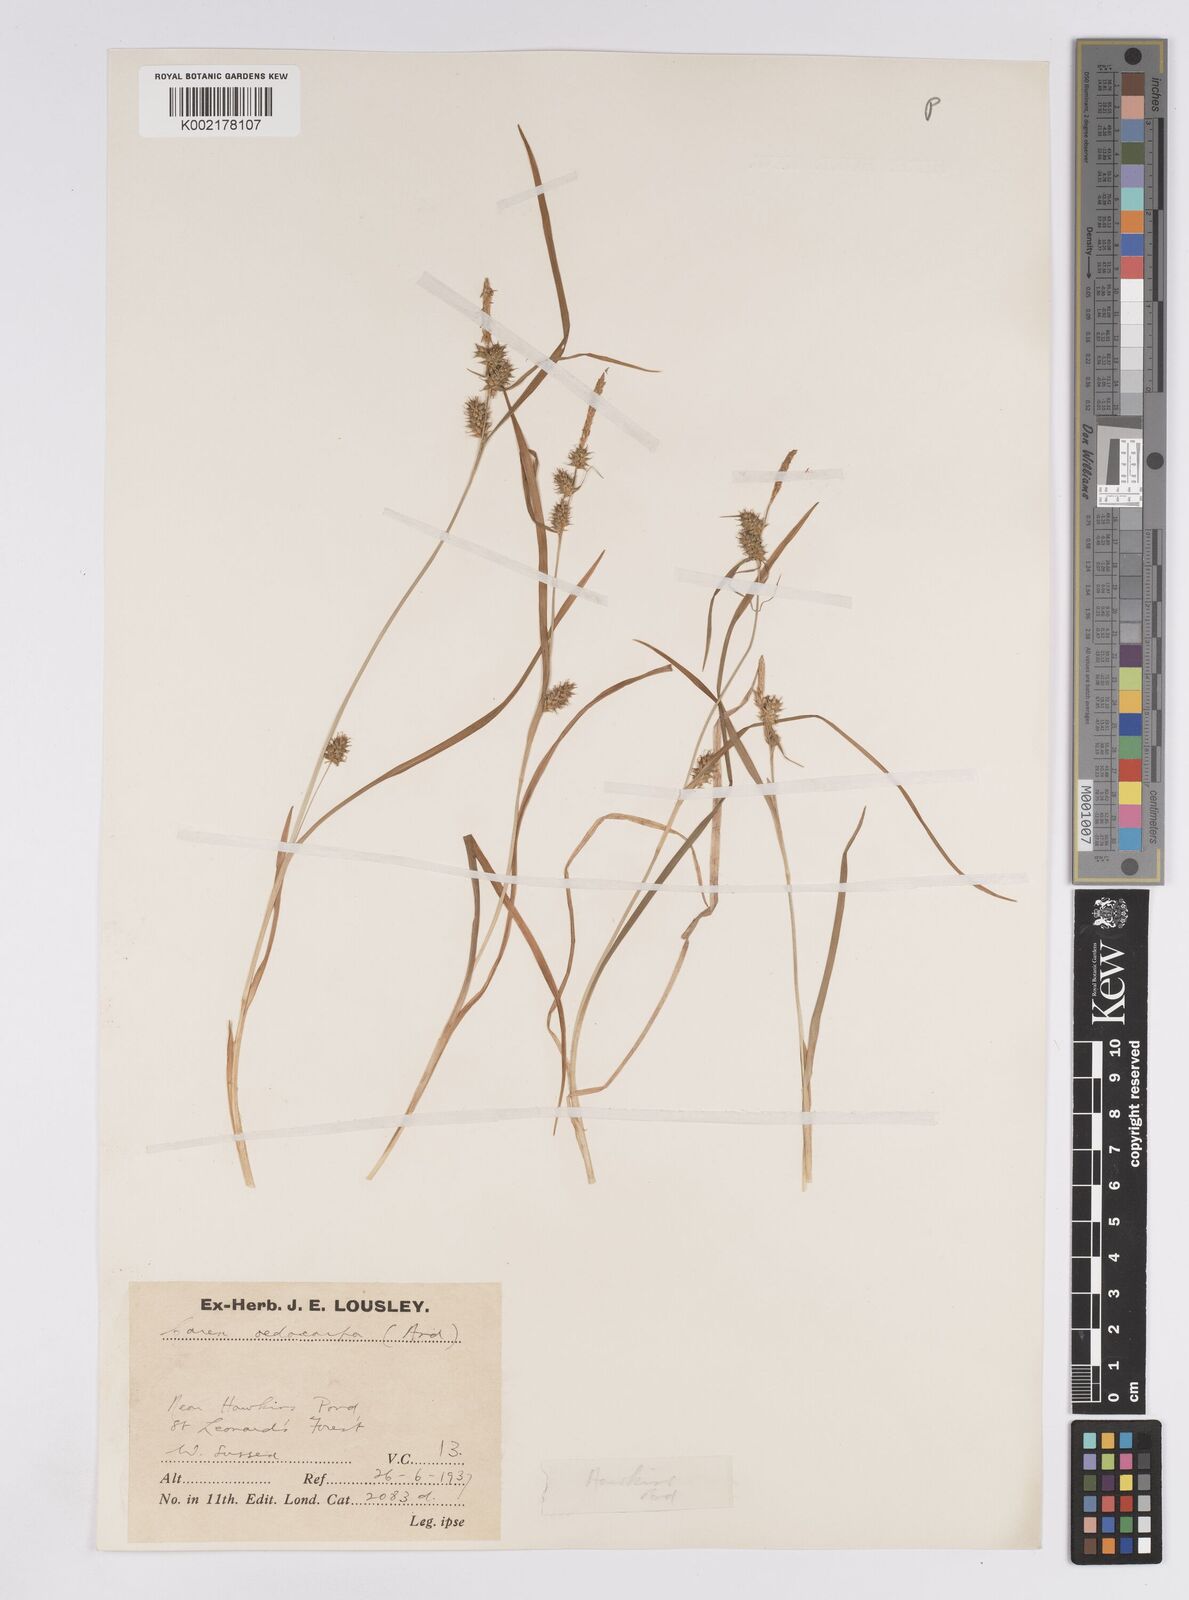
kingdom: Plantae
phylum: Tracheophyta
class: Liliopsida
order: Poales
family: Cyperaceae
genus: Carex
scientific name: Carex demissa
